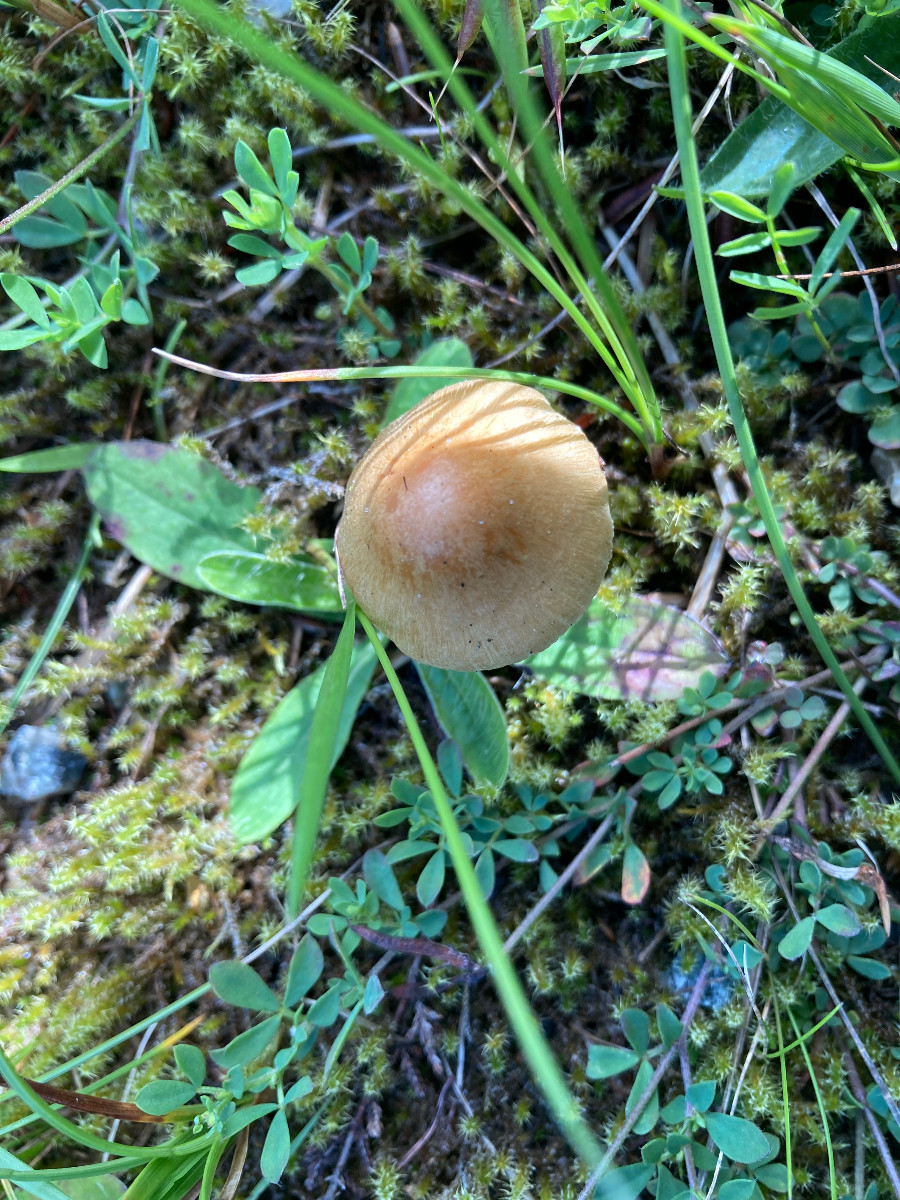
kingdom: Fungi
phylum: Basidiomycota
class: Agaricomycetes
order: Agaricales
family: Inocybaceae
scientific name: Inocybaceae
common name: trævlhatfamilien
